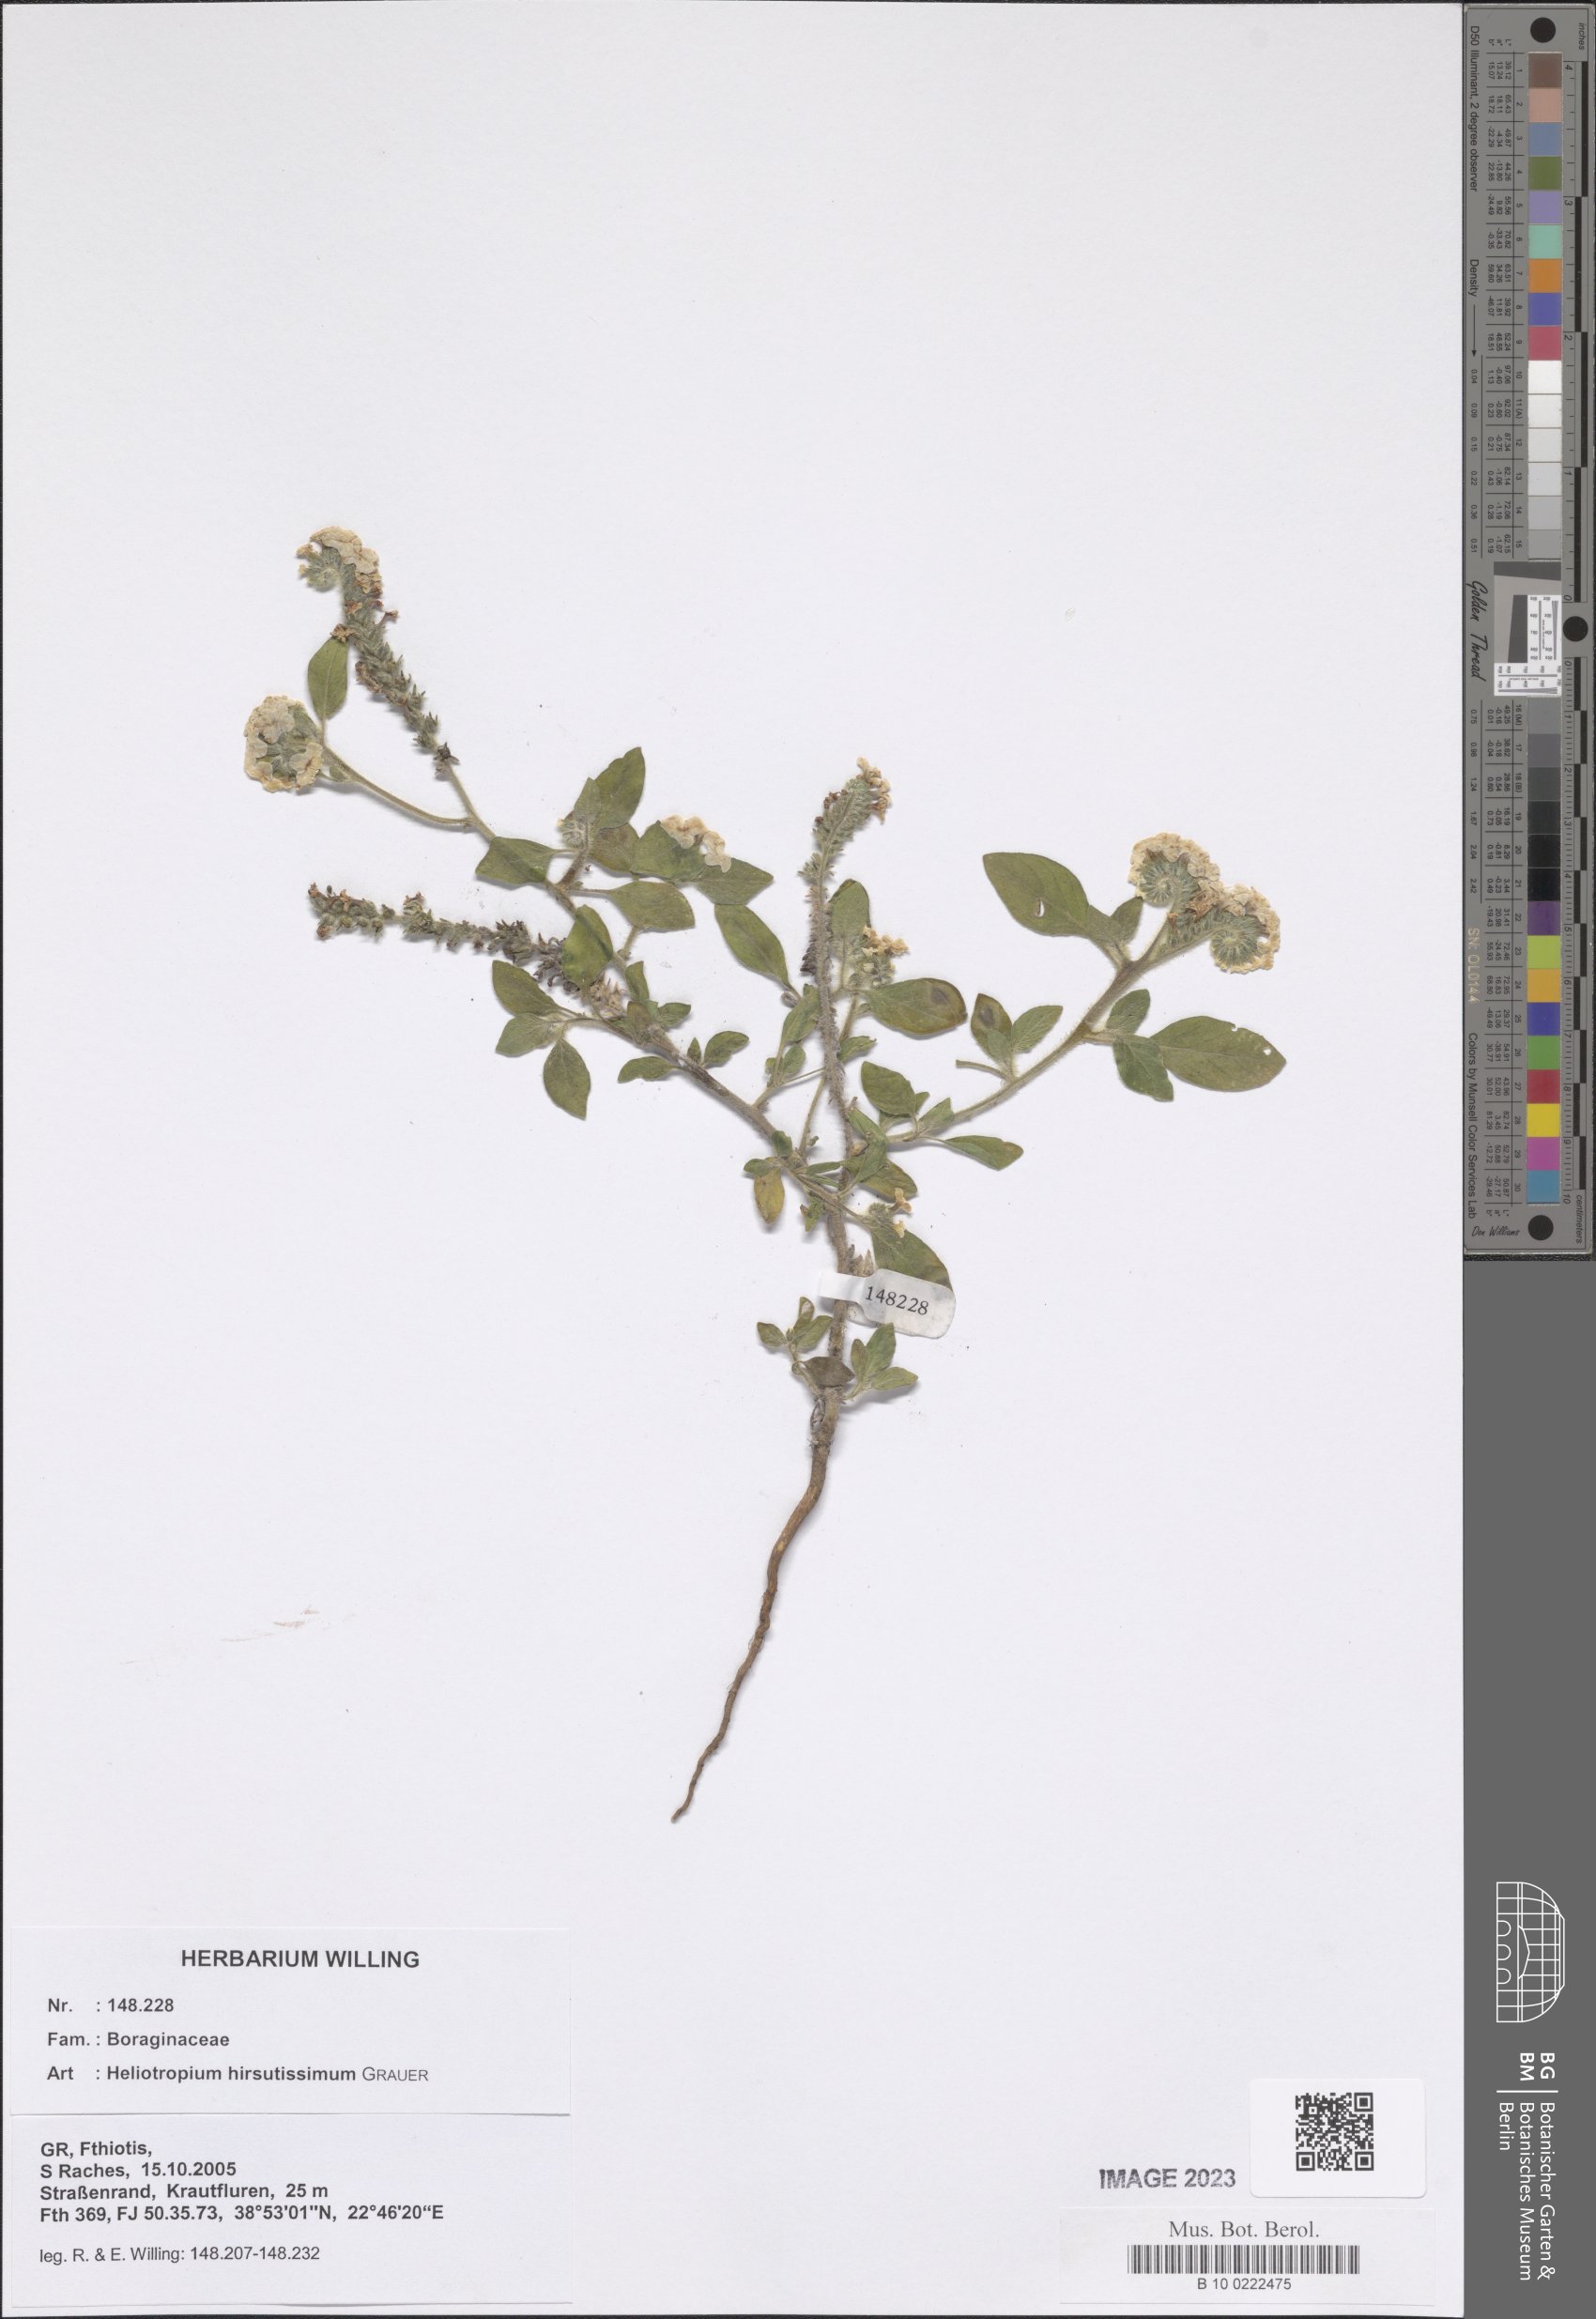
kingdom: Plantae
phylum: Tracheophyta
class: Magnoliopsida
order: Boraginales
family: Heliotropiaceae
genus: Heliotropium
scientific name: Heliotropium hirsutissimum
